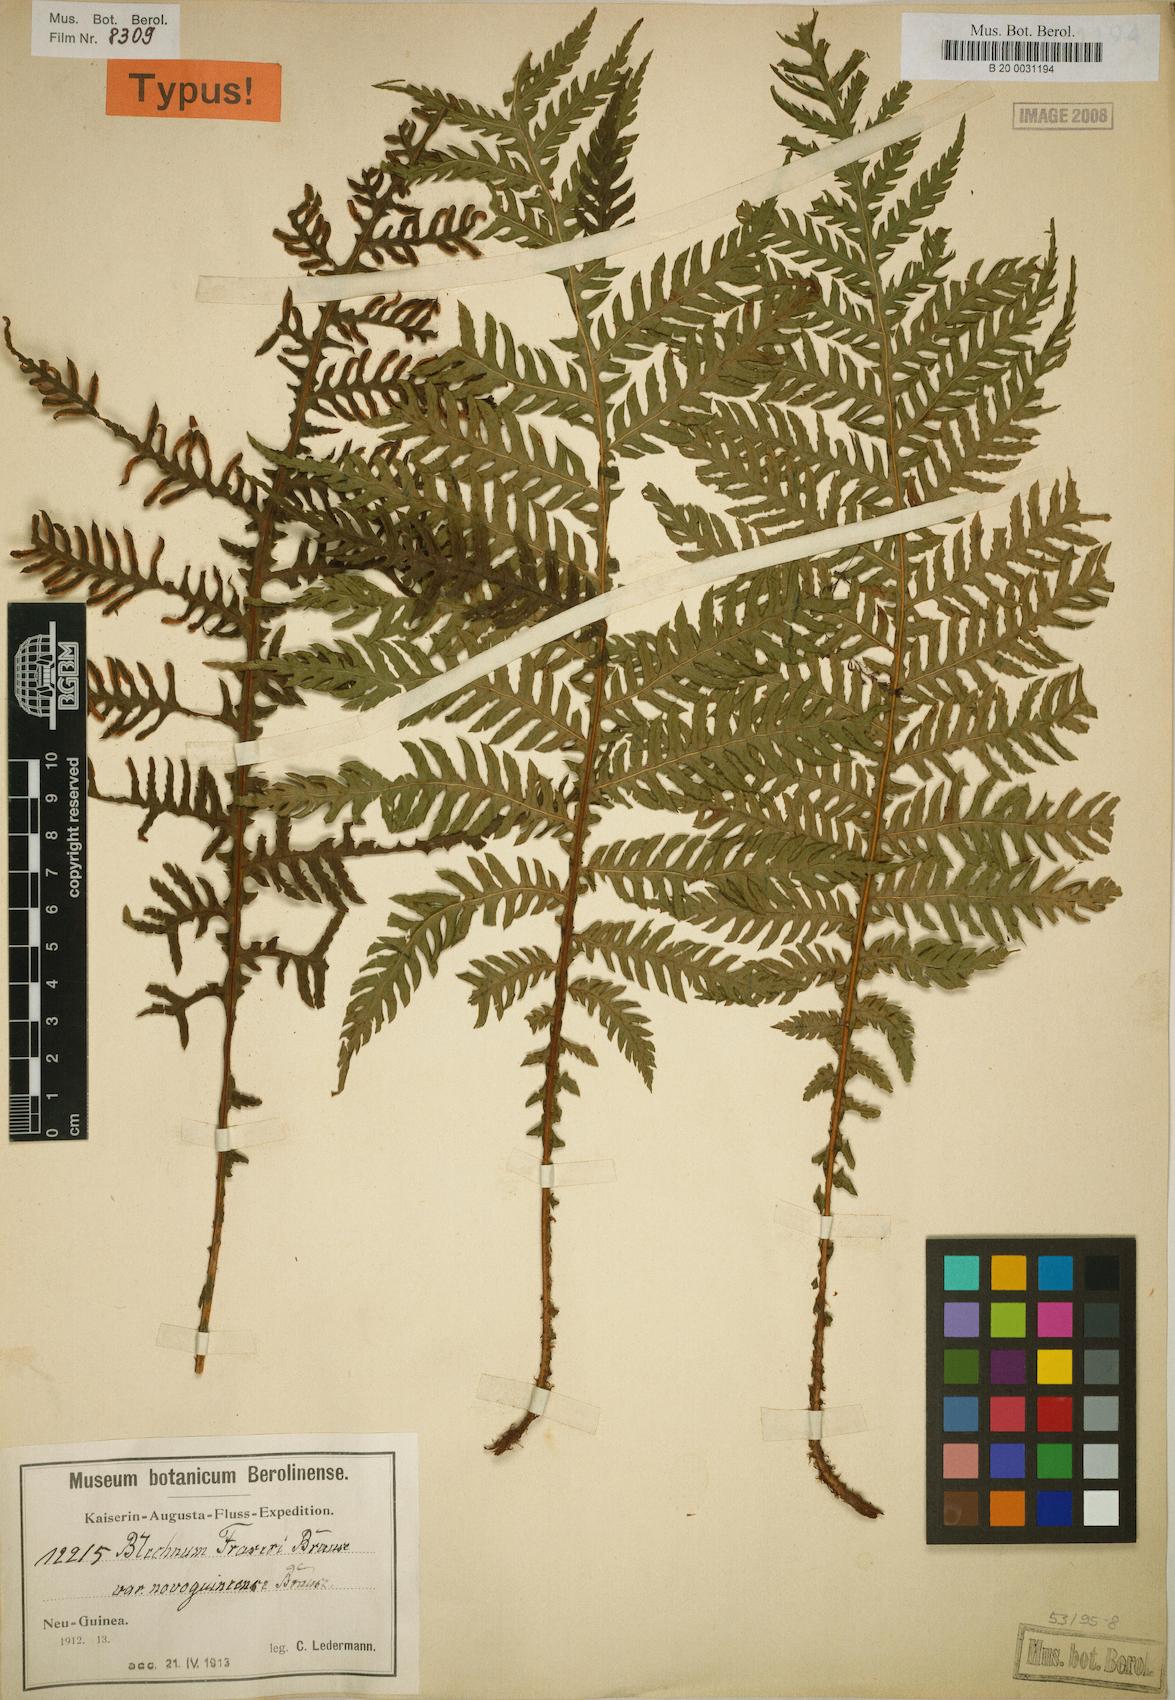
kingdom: Plantae
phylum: Tracheophyta
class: Polypodiopsida
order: Polypodiales
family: Blechnaceae
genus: Diploblechnum
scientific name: Diploblechnum rosenstockii
